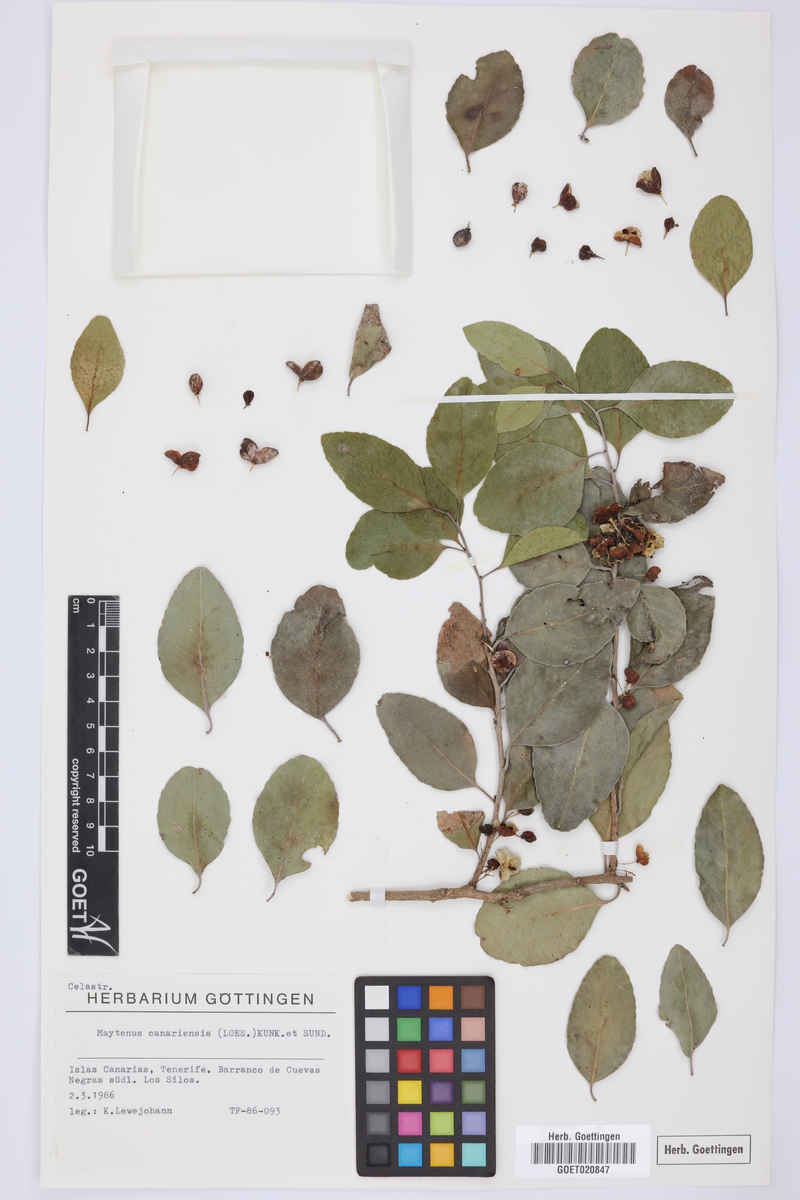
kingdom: Plantae
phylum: Tracheophyta
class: Magnoliopsida
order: Celastrales
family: Celastraceae
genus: Gymnosporia
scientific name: Gymnosporia cassinoides
